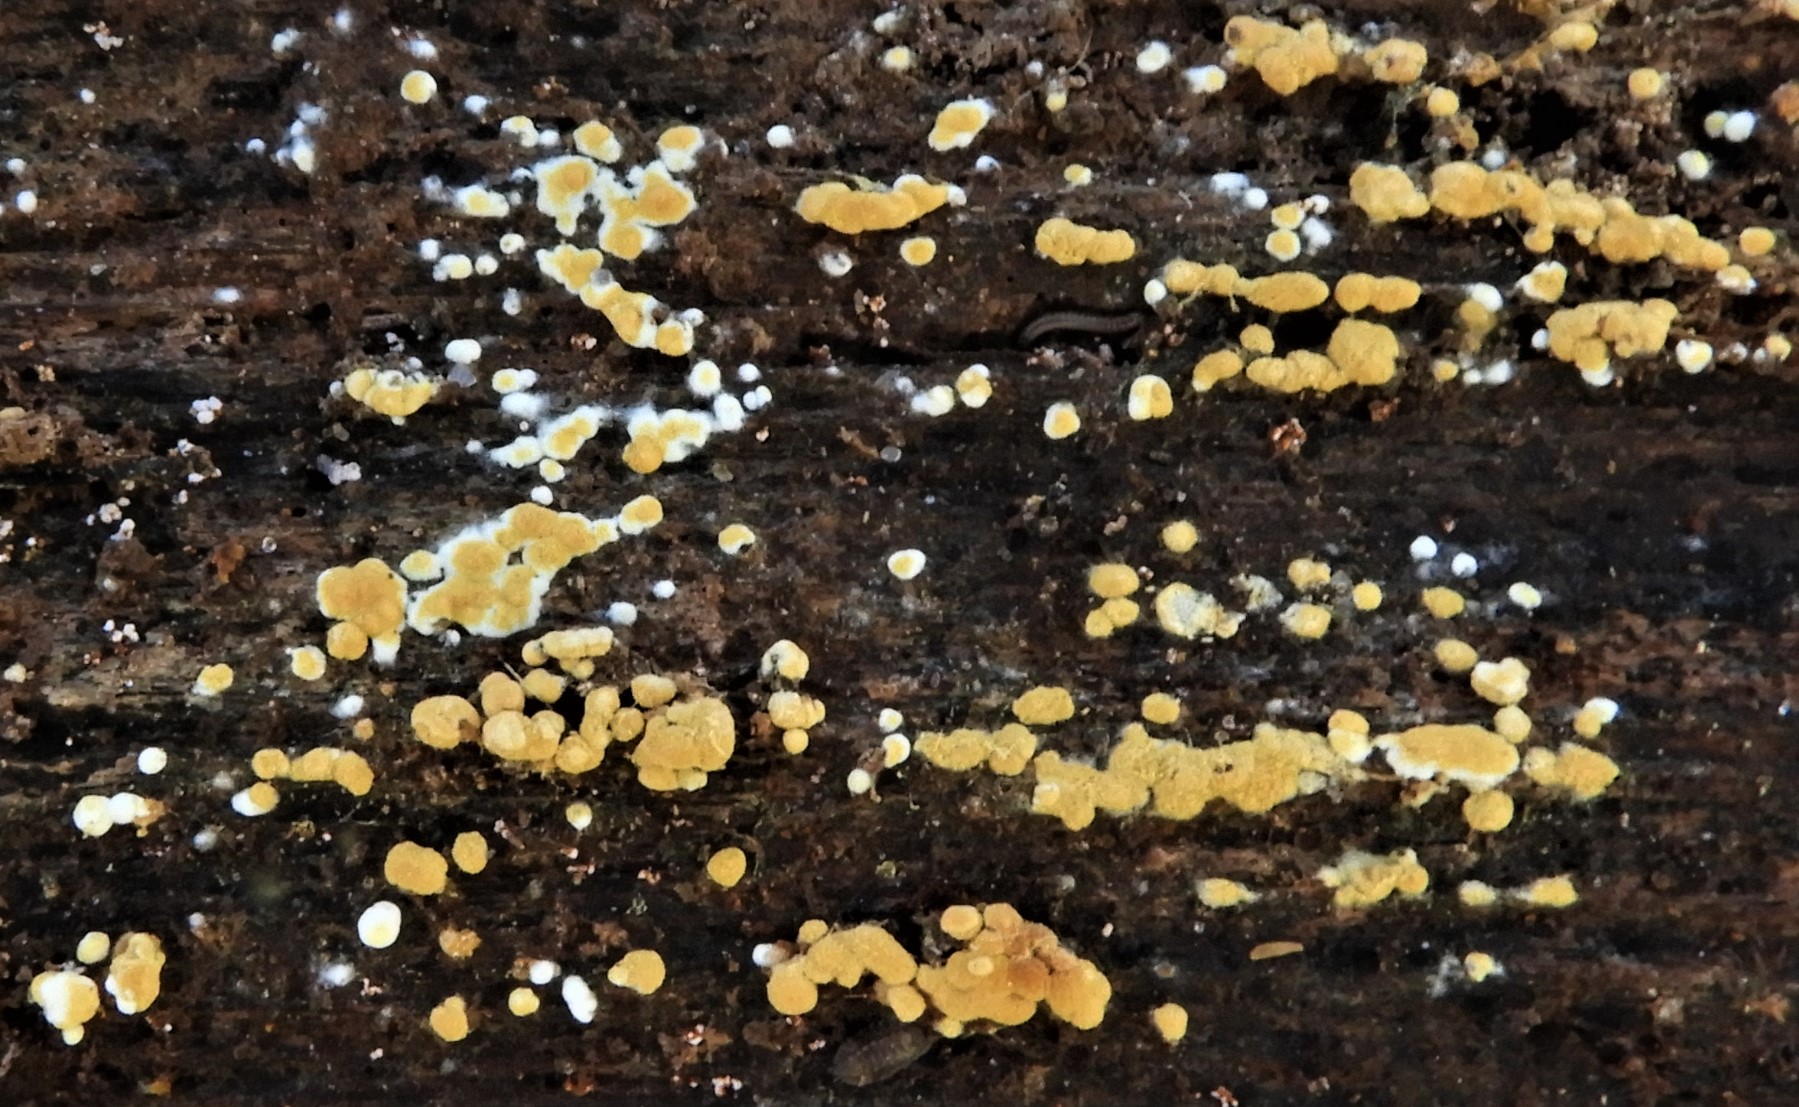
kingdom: Fungi
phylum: Basidiomycota
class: Agaricomycetes
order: Cantharellales
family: Botryobasidiaceae
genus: Botryobasidium
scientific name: Botryobasidium aureum
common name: gylden spindhinde
